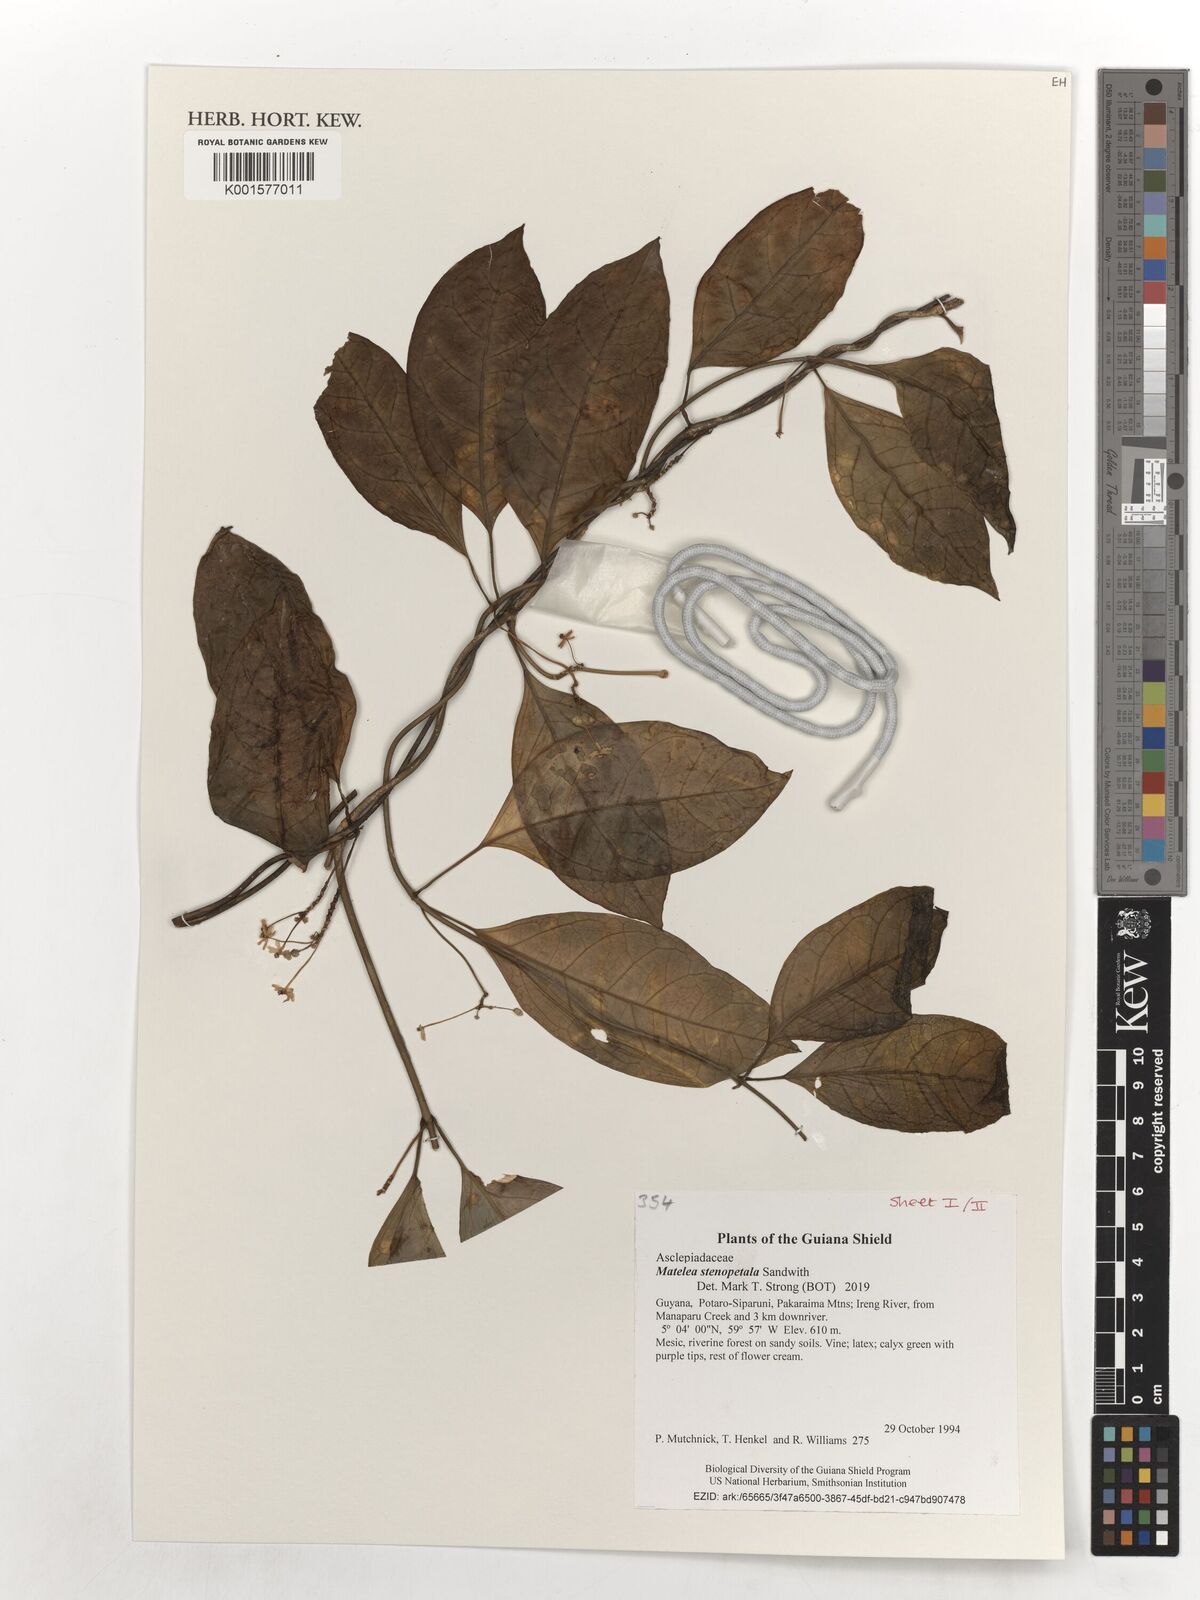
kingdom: Plantae
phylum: Tracheophyta
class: Magnoliopsida
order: Gentianales
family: Apocynaceae
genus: Matelea
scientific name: Matelea stenopetala
